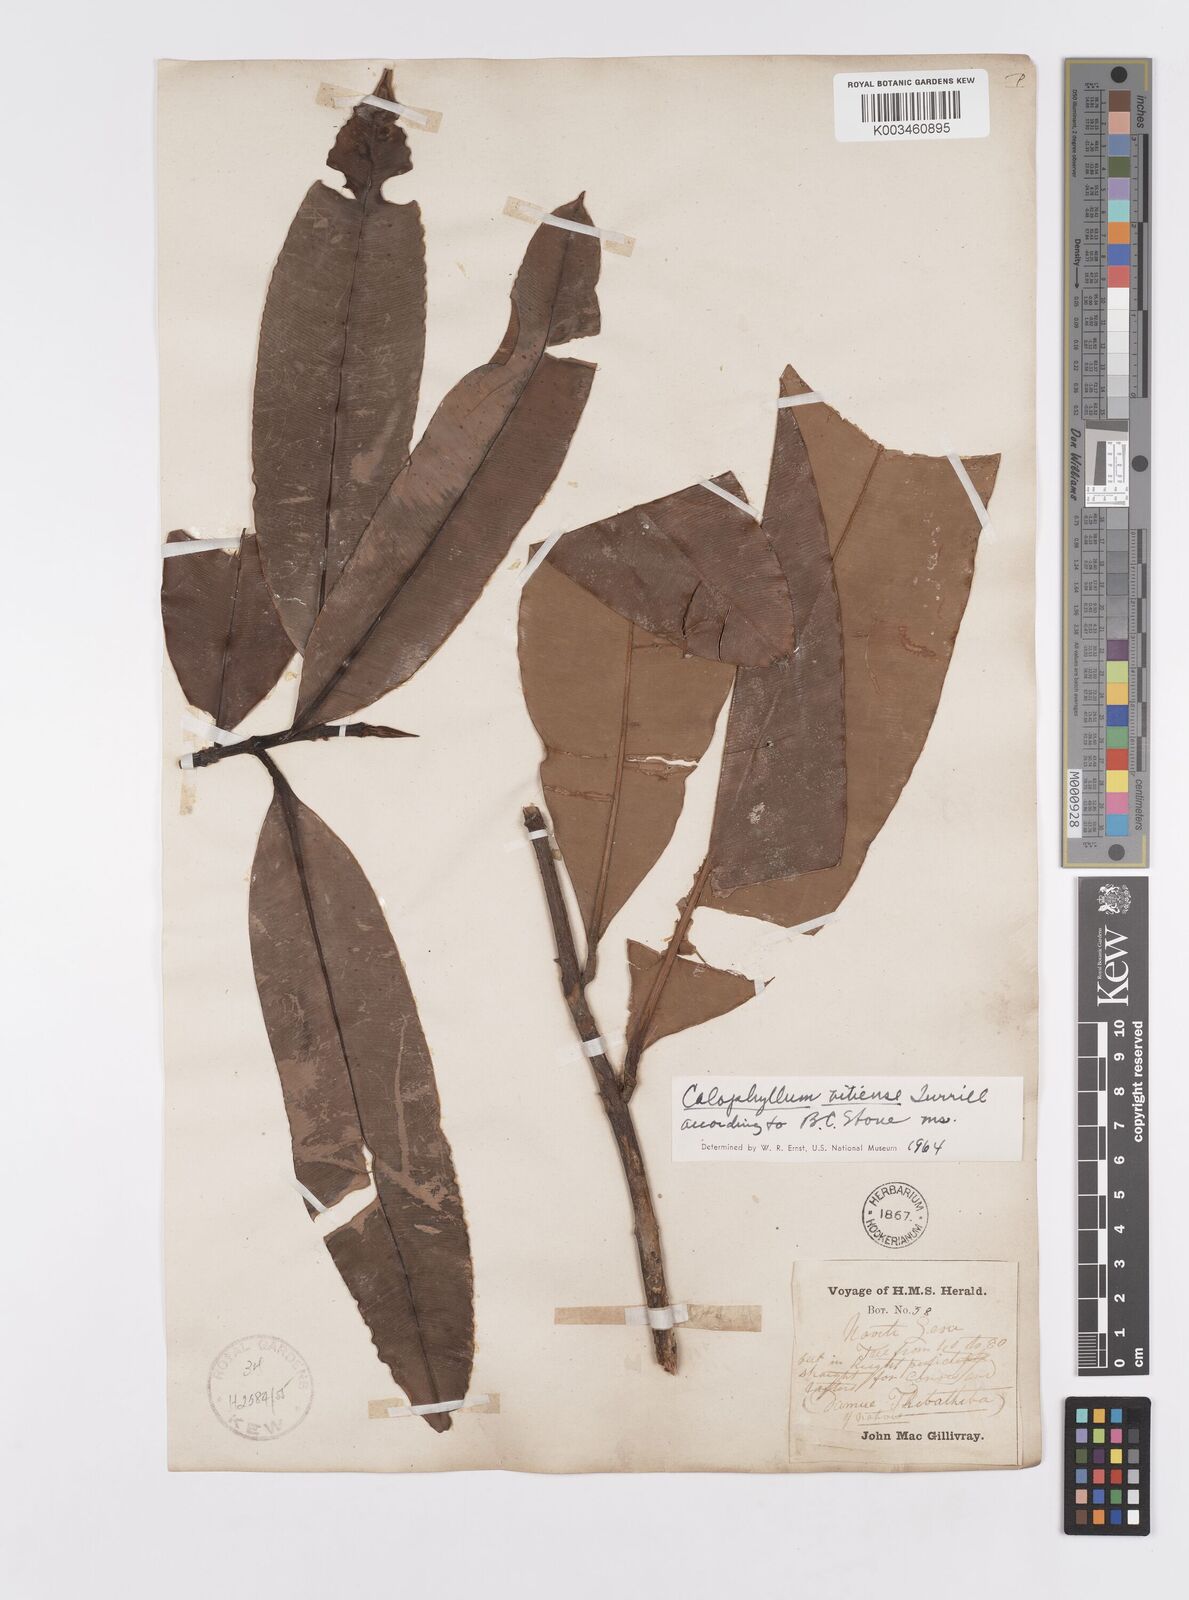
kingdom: Plantae
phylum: Tracheophyta
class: Magnoliopsida
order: Malpighiales
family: Calophyllaceae
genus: Calophyllum
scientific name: Calophyllum vitiense
